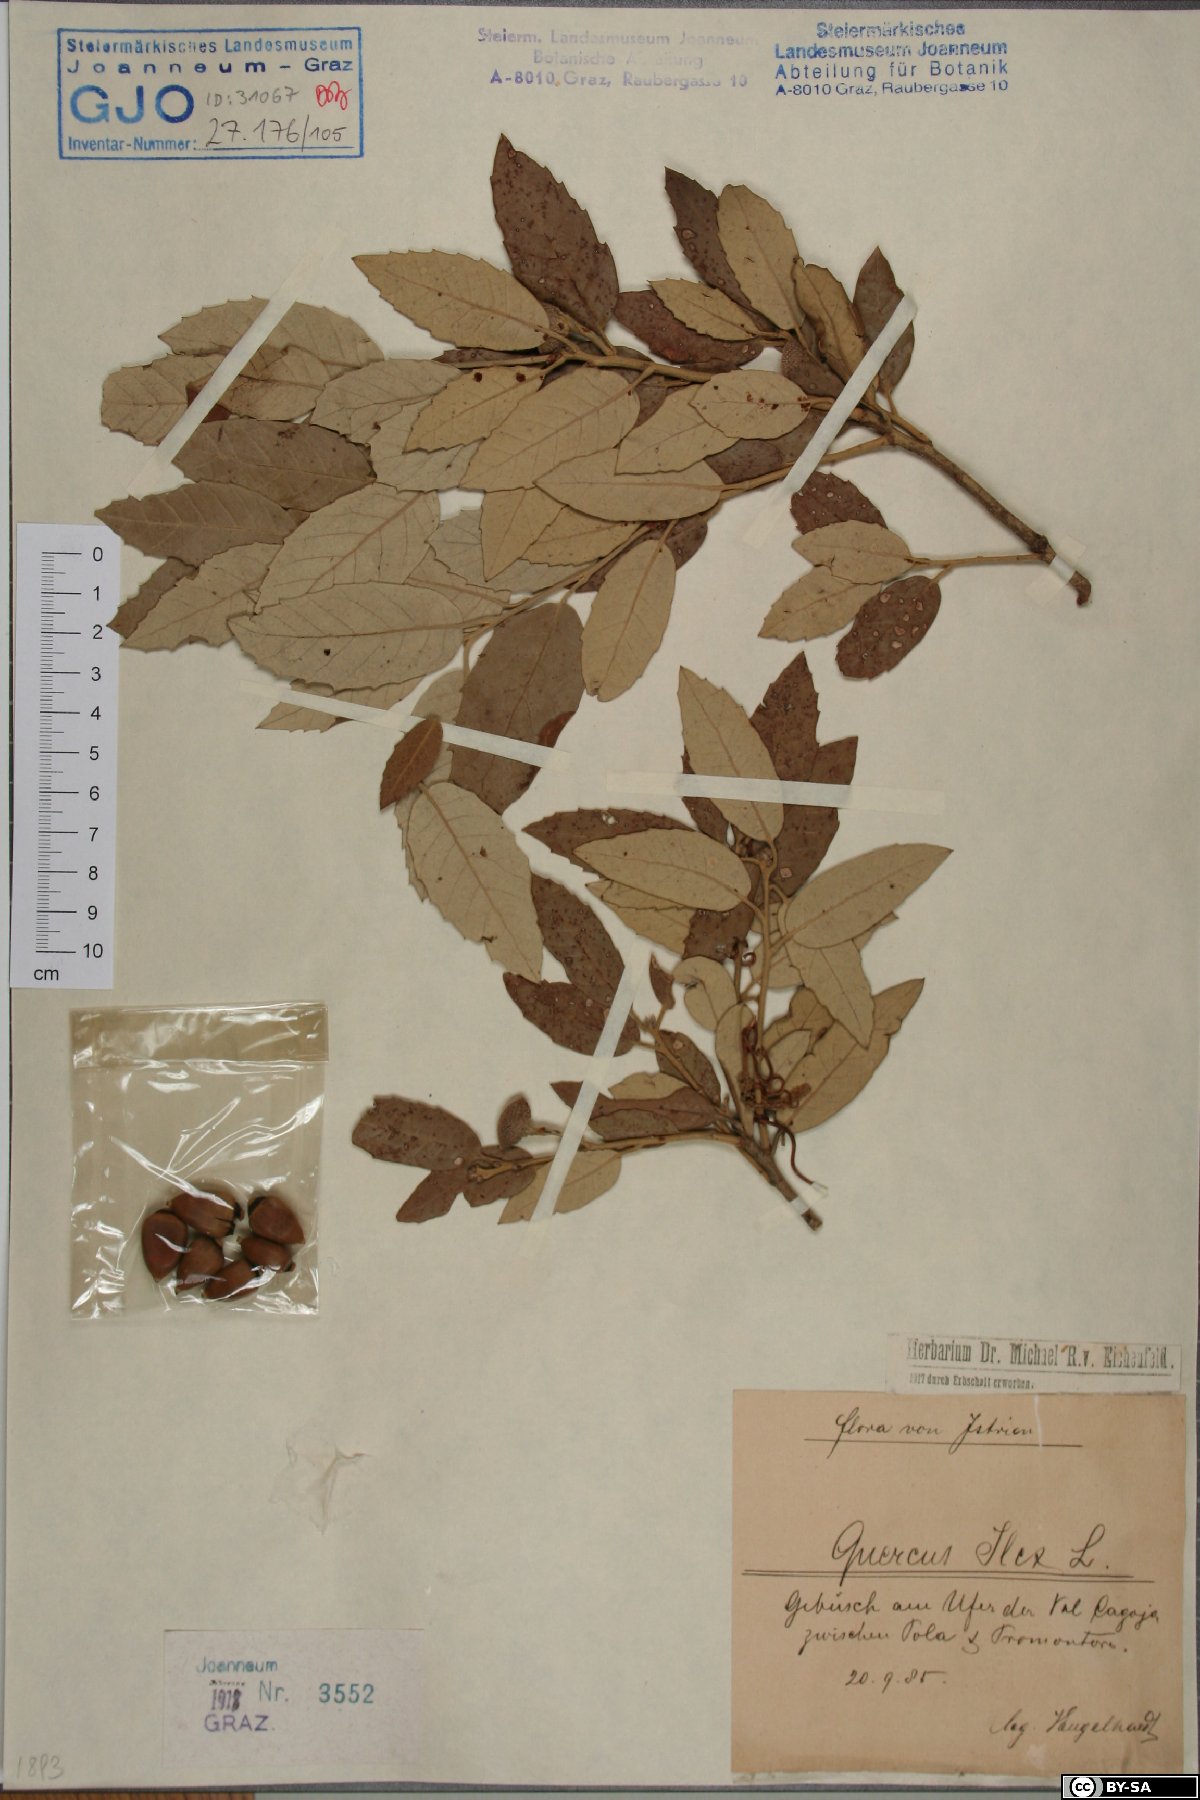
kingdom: Plantae
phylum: Tracheophyta
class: Magnoliopsida
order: Fagales
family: Fagaceae
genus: Quercus
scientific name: Quercus ilex
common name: Evergreen oak
